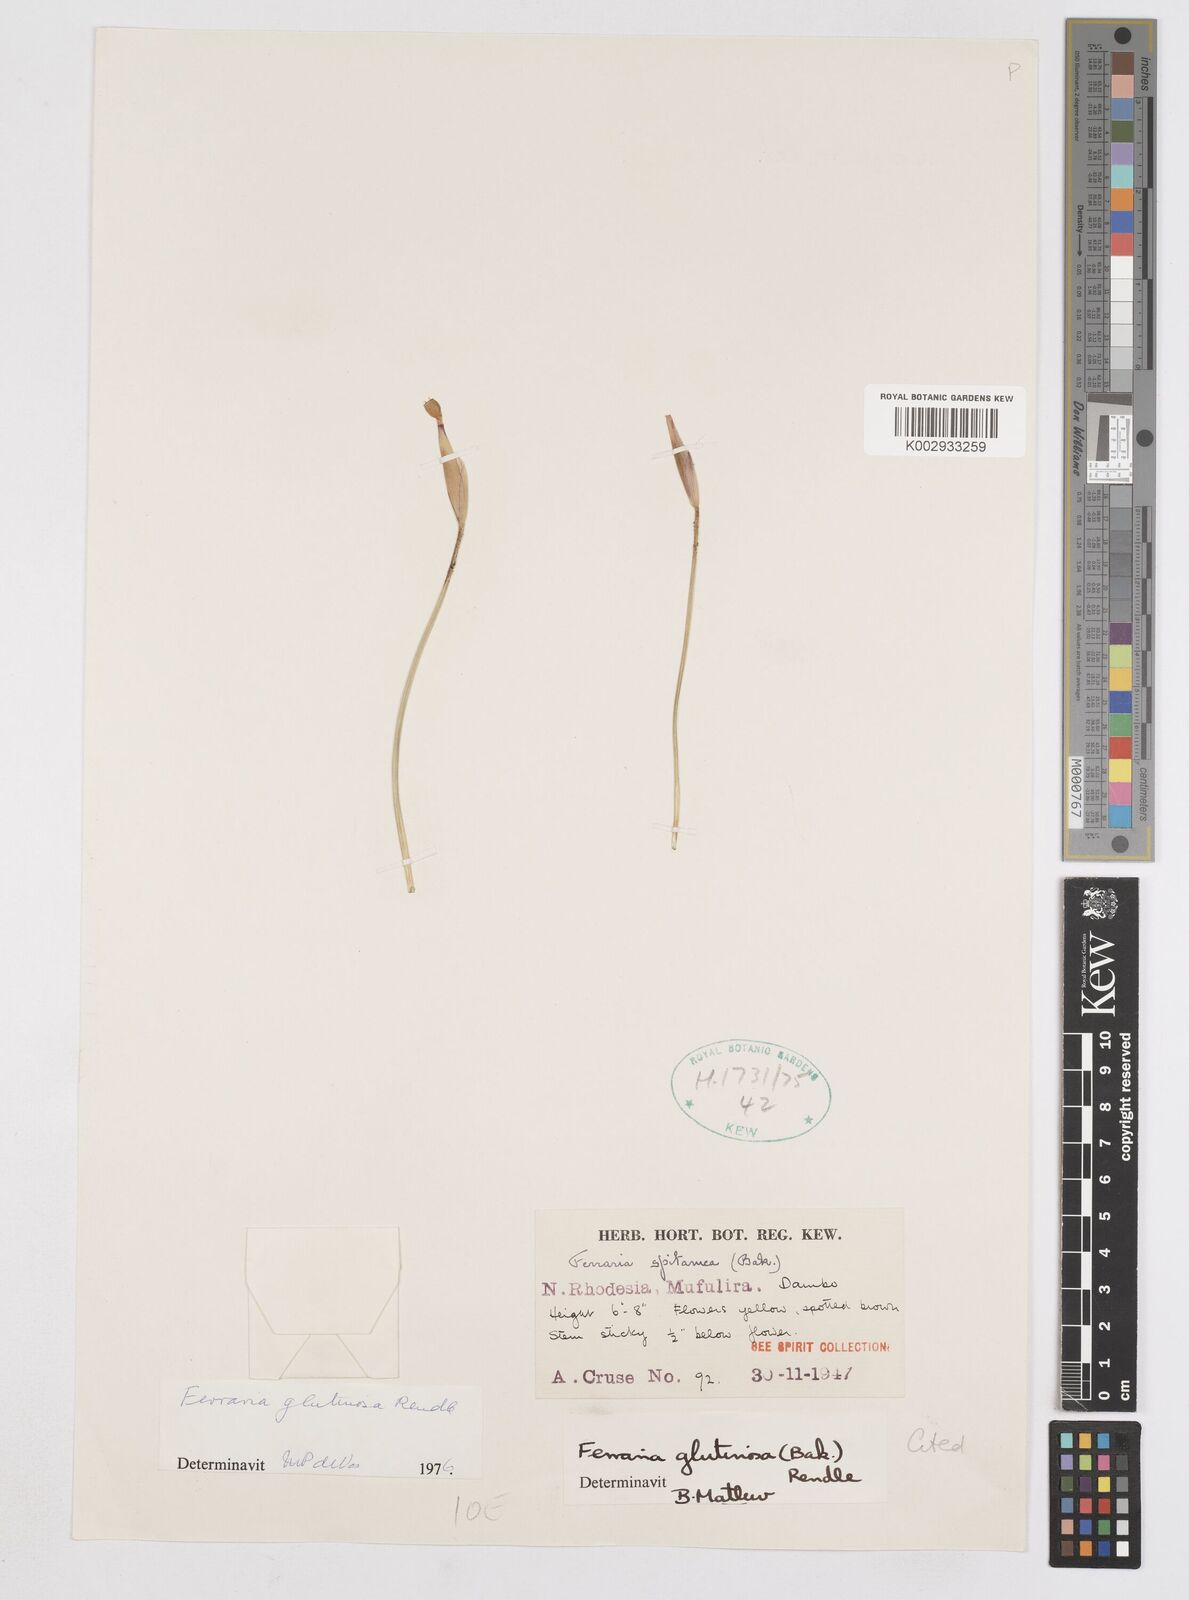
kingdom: Plantae
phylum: Tracheophyta
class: Liliopsida
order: Asparagales
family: Iridaceae
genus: Ferraria
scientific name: Ferraria
